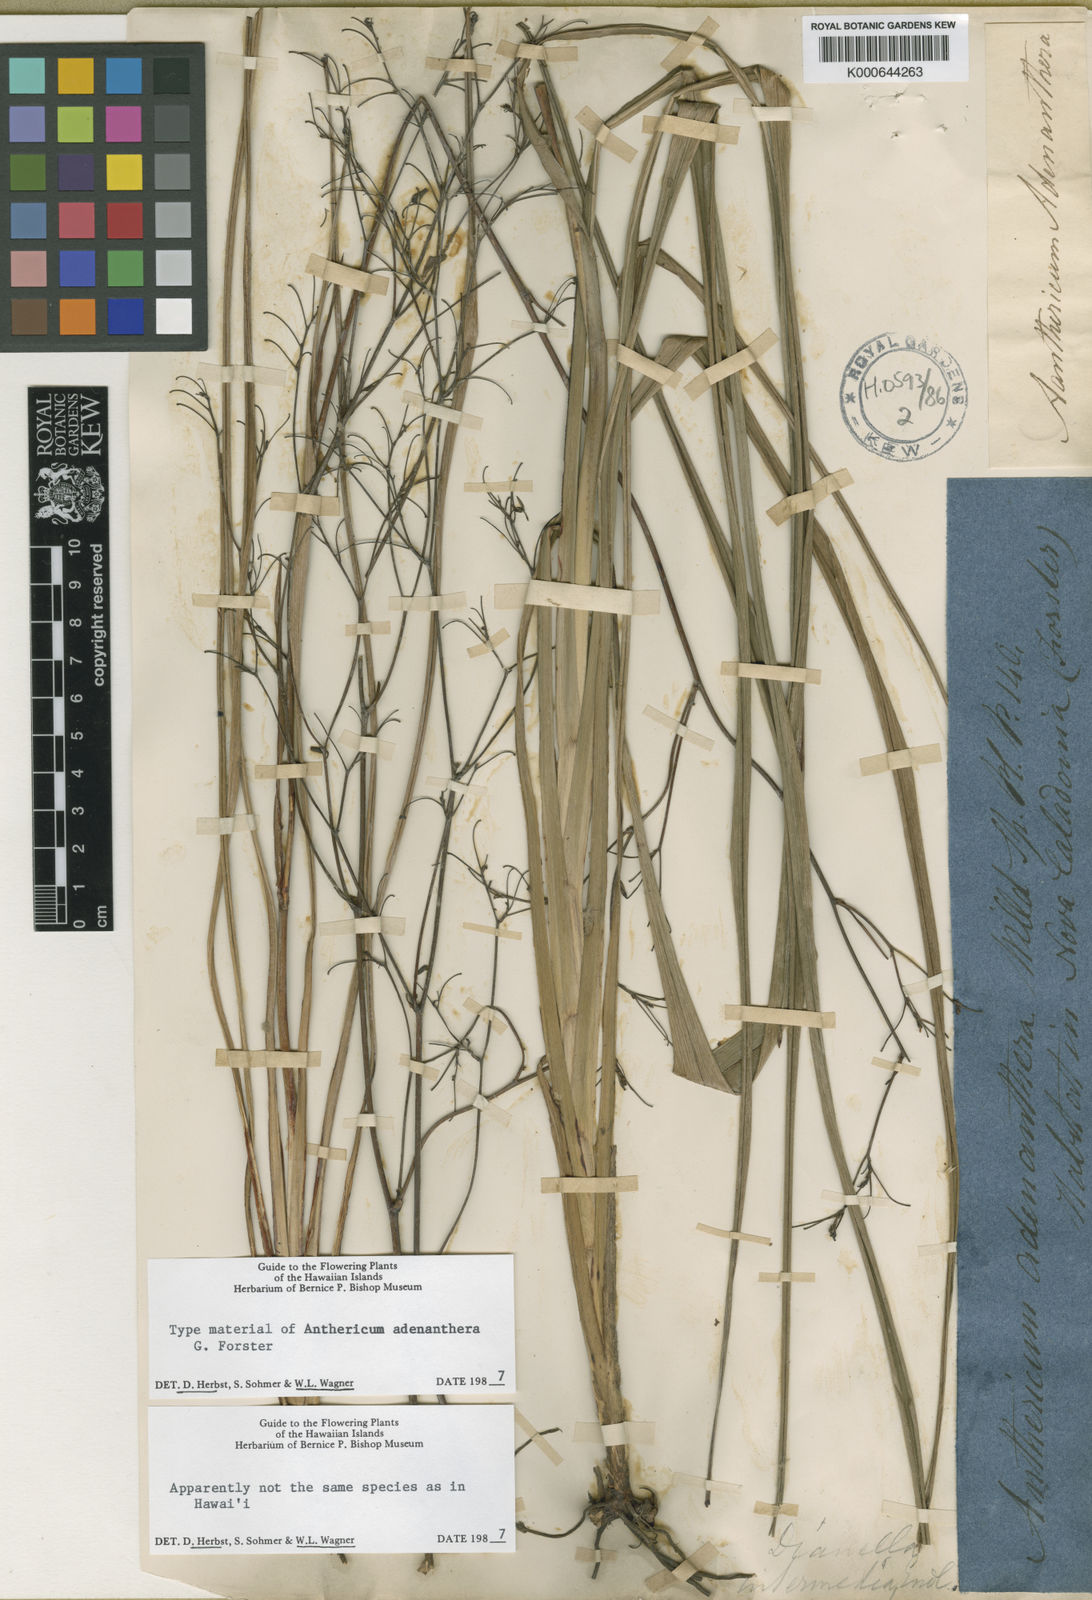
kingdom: Plantae
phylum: Tracheophyta
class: Liliopsida
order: Asparagales
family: Asphodelaceae
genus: Dianella
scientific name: Dianella adenanthera
